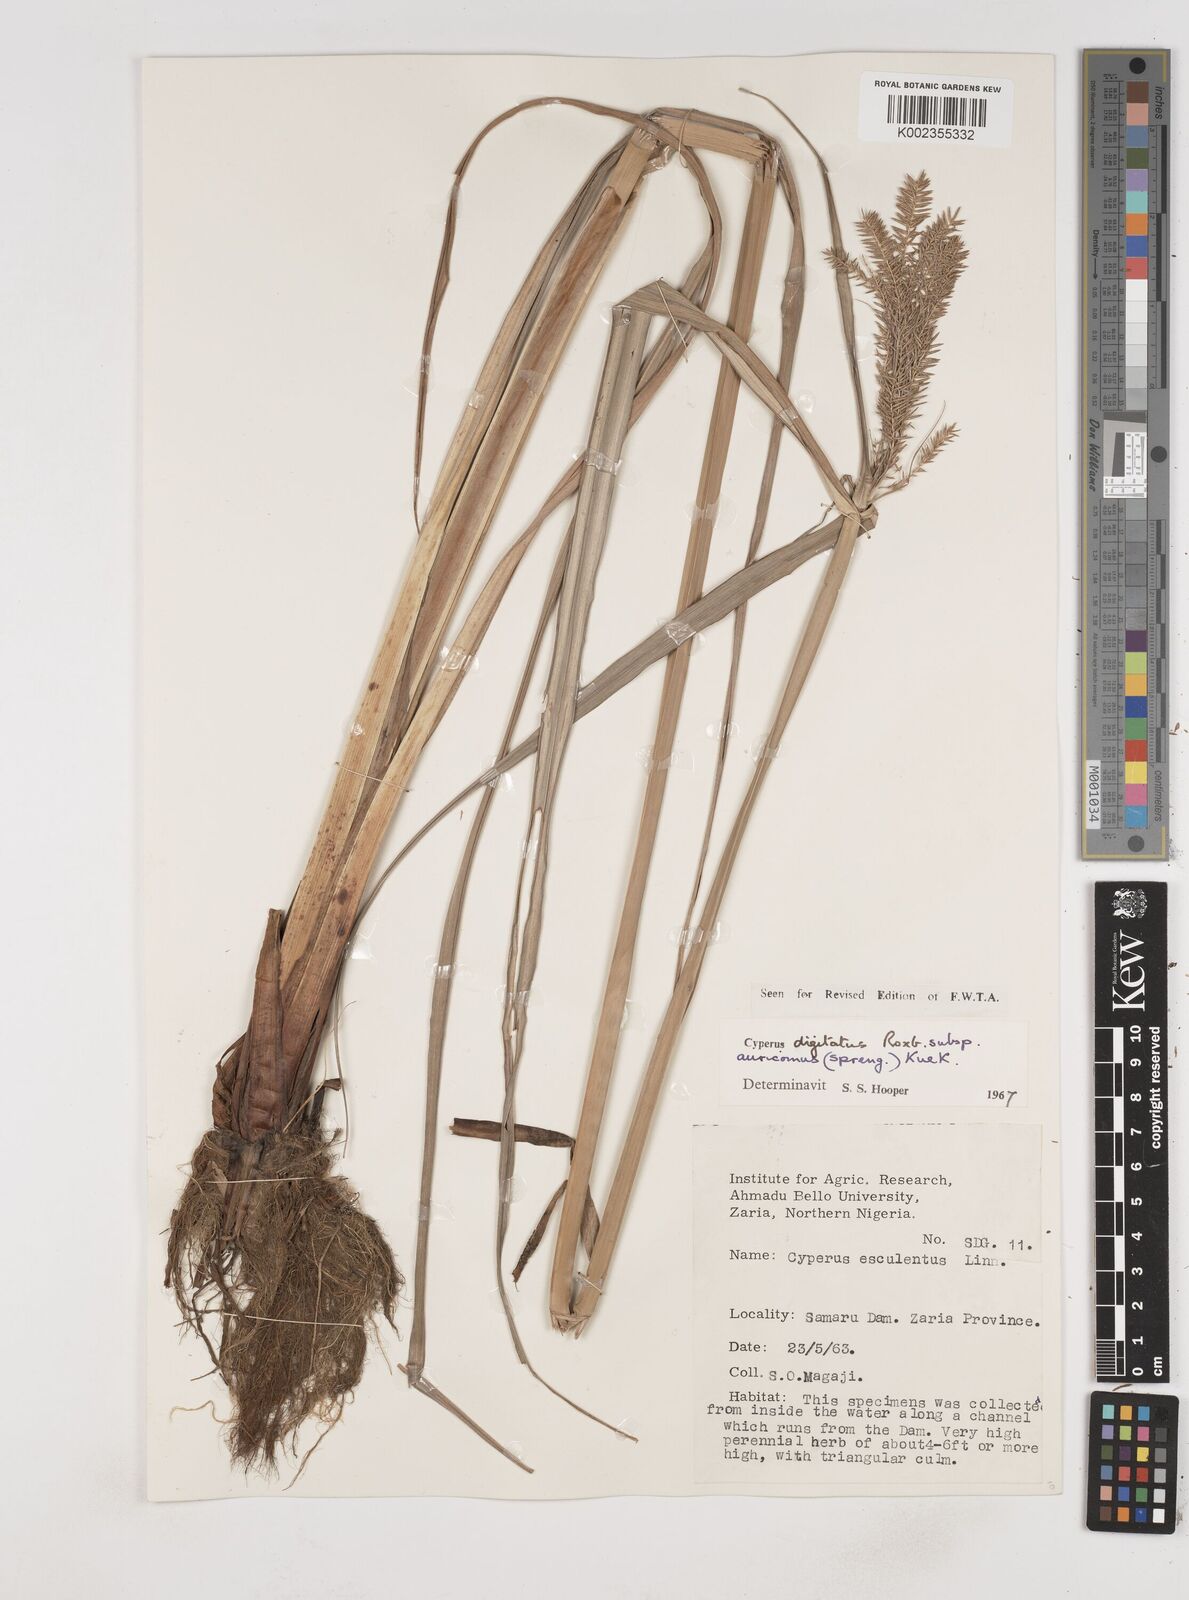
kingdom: Plantae
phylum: Tracheophyta
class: Liliopsida
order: Poales
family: Cyperaceae
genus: Cyperus
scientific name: Cyperus digitatus
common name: Finger flatsedge
